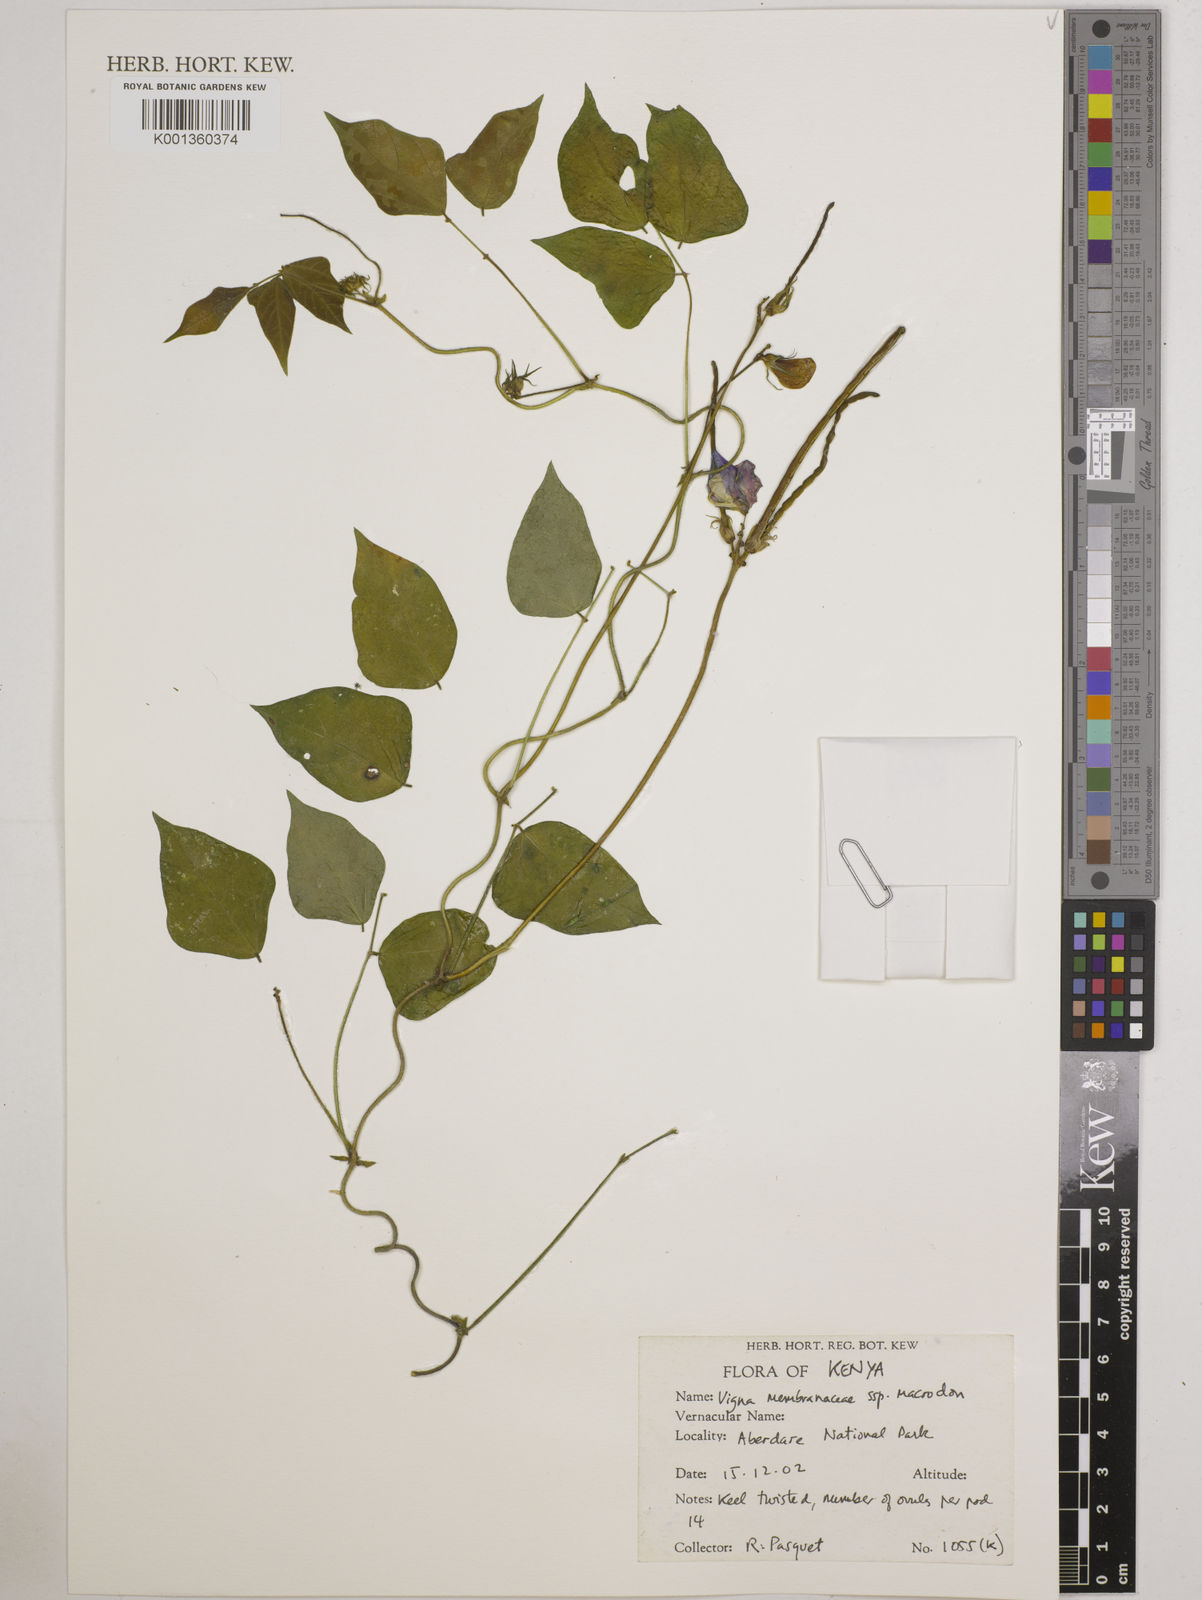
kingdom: Plantae
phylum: Tracheophyta
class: Magnoliopsida
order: Fabales
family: Fabaceae
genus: Vigna
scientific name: Vigna
